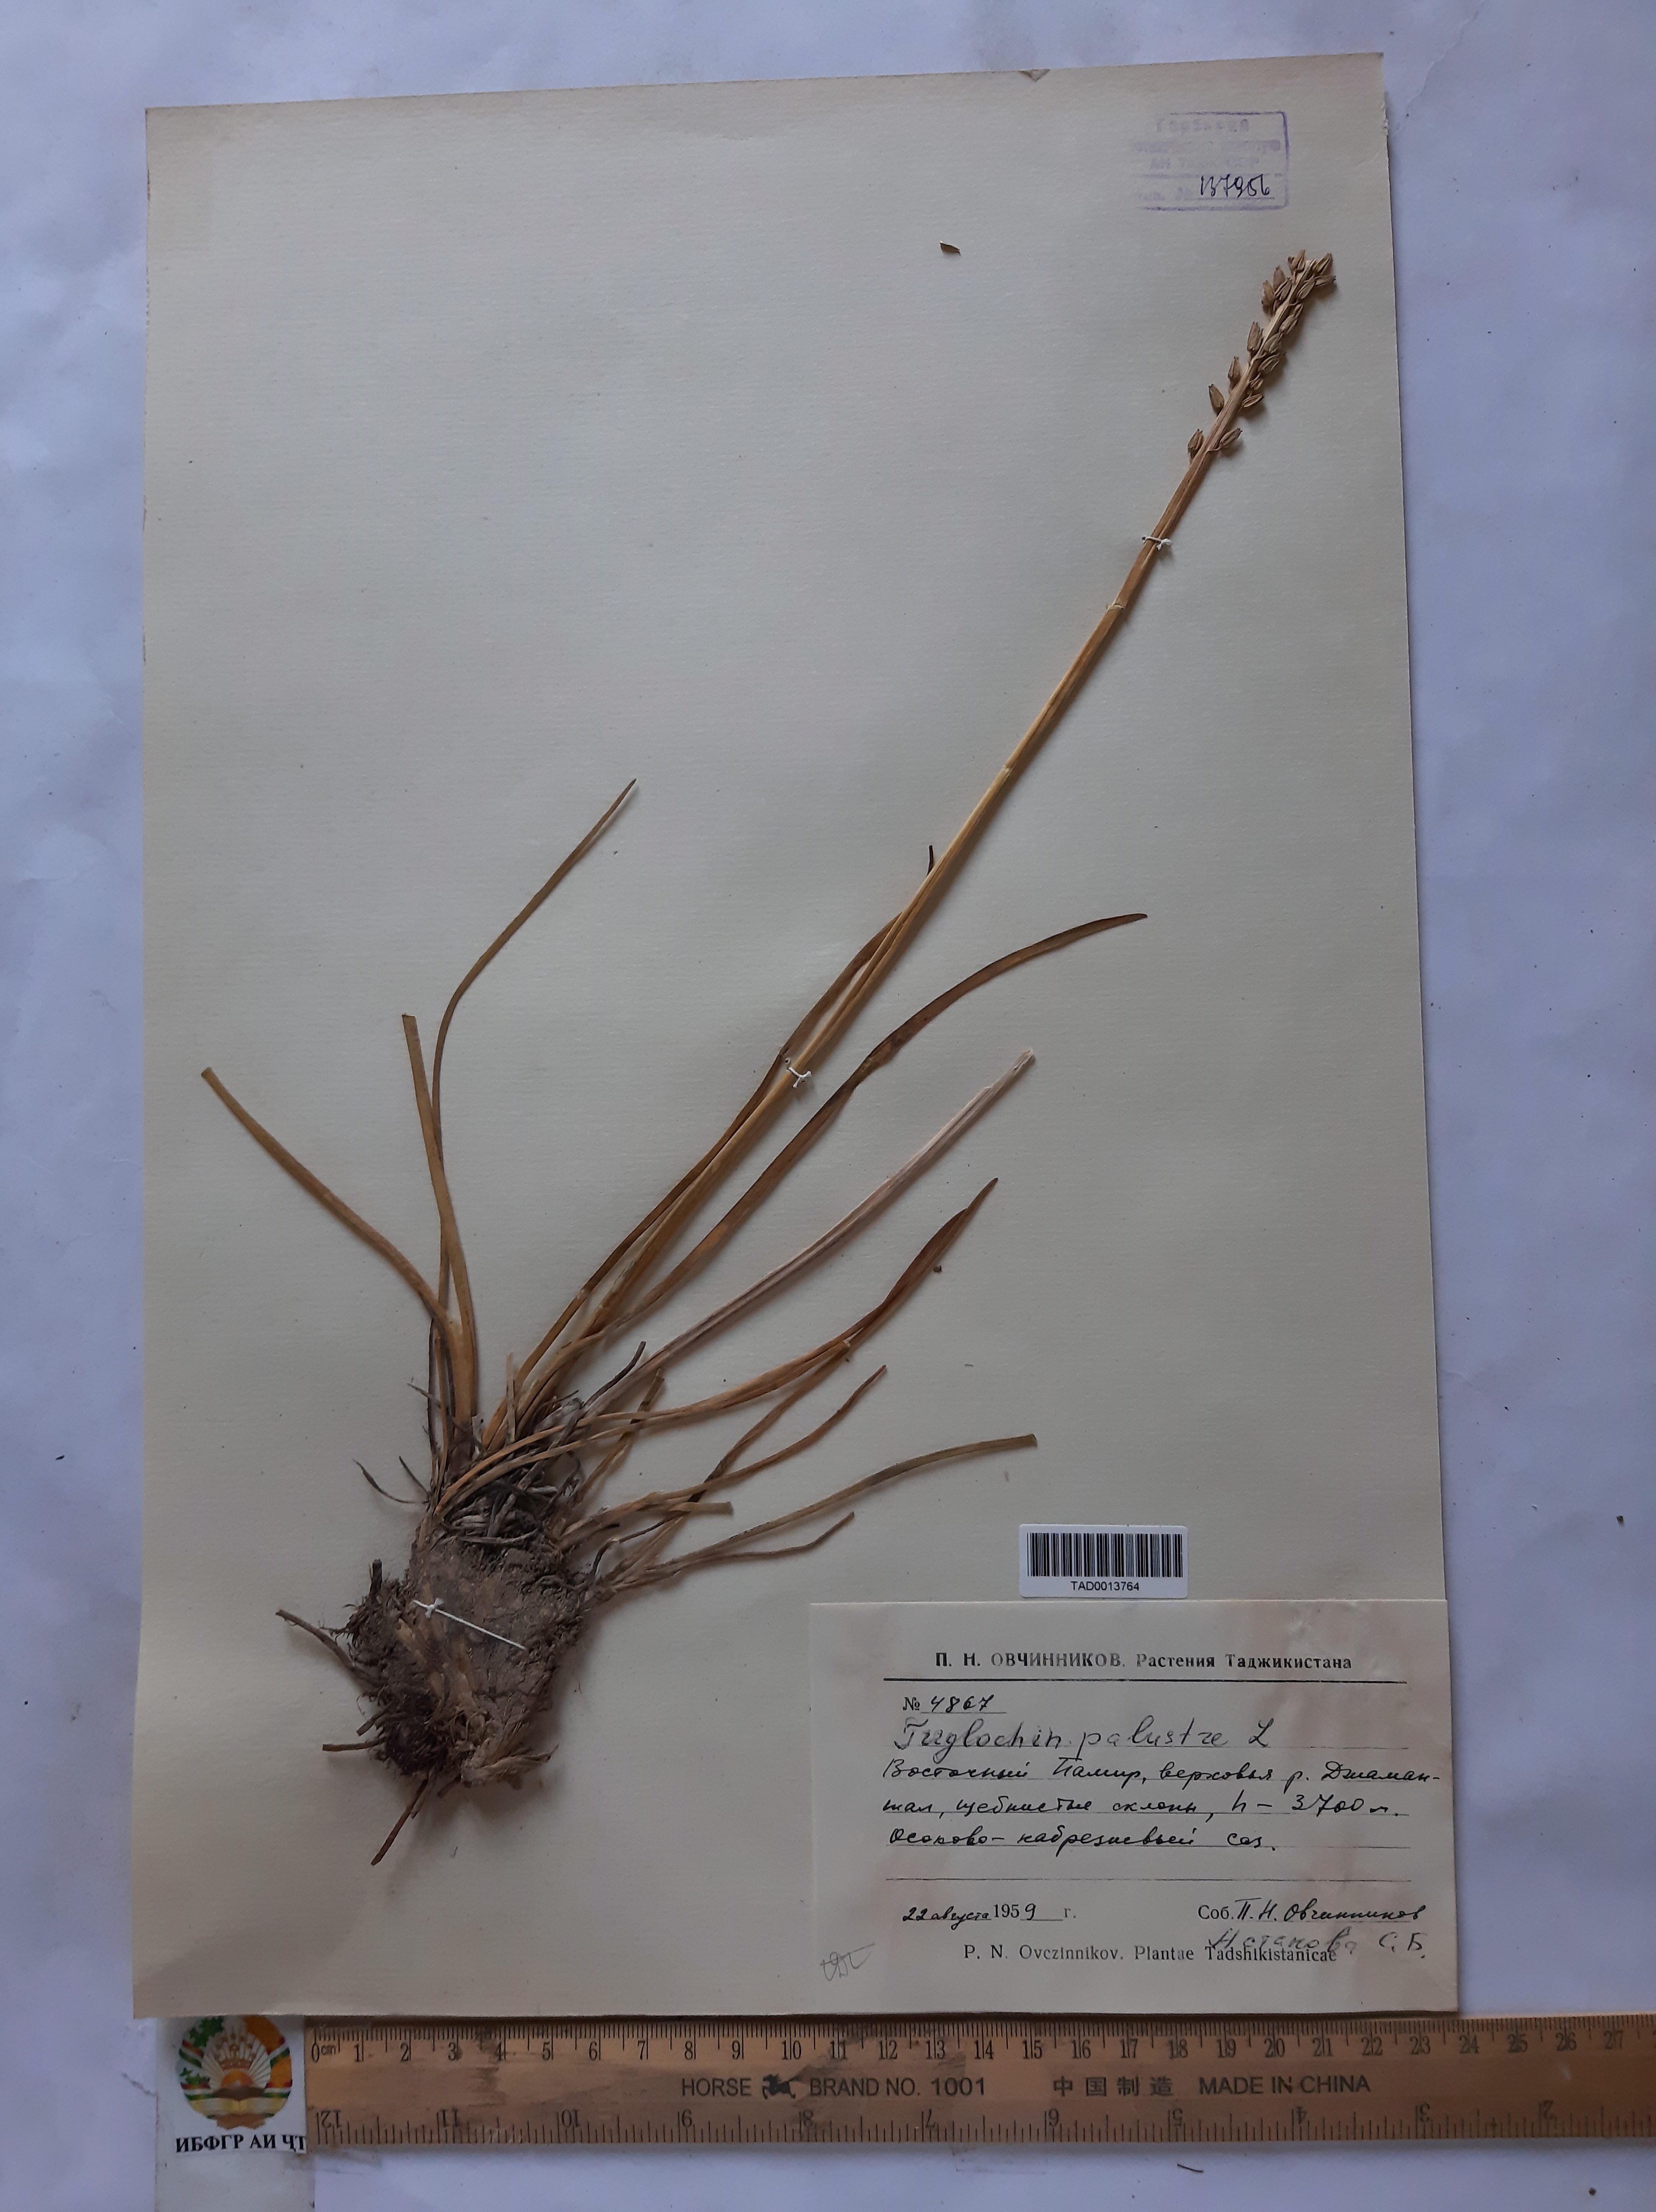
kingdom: Plantae
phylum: Tracheophyta
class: Liliopsida
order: Alismatales
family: Juncaginaceae
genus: Triglochin
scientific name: Triglochin palustris
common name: Marsh arrowgrass
